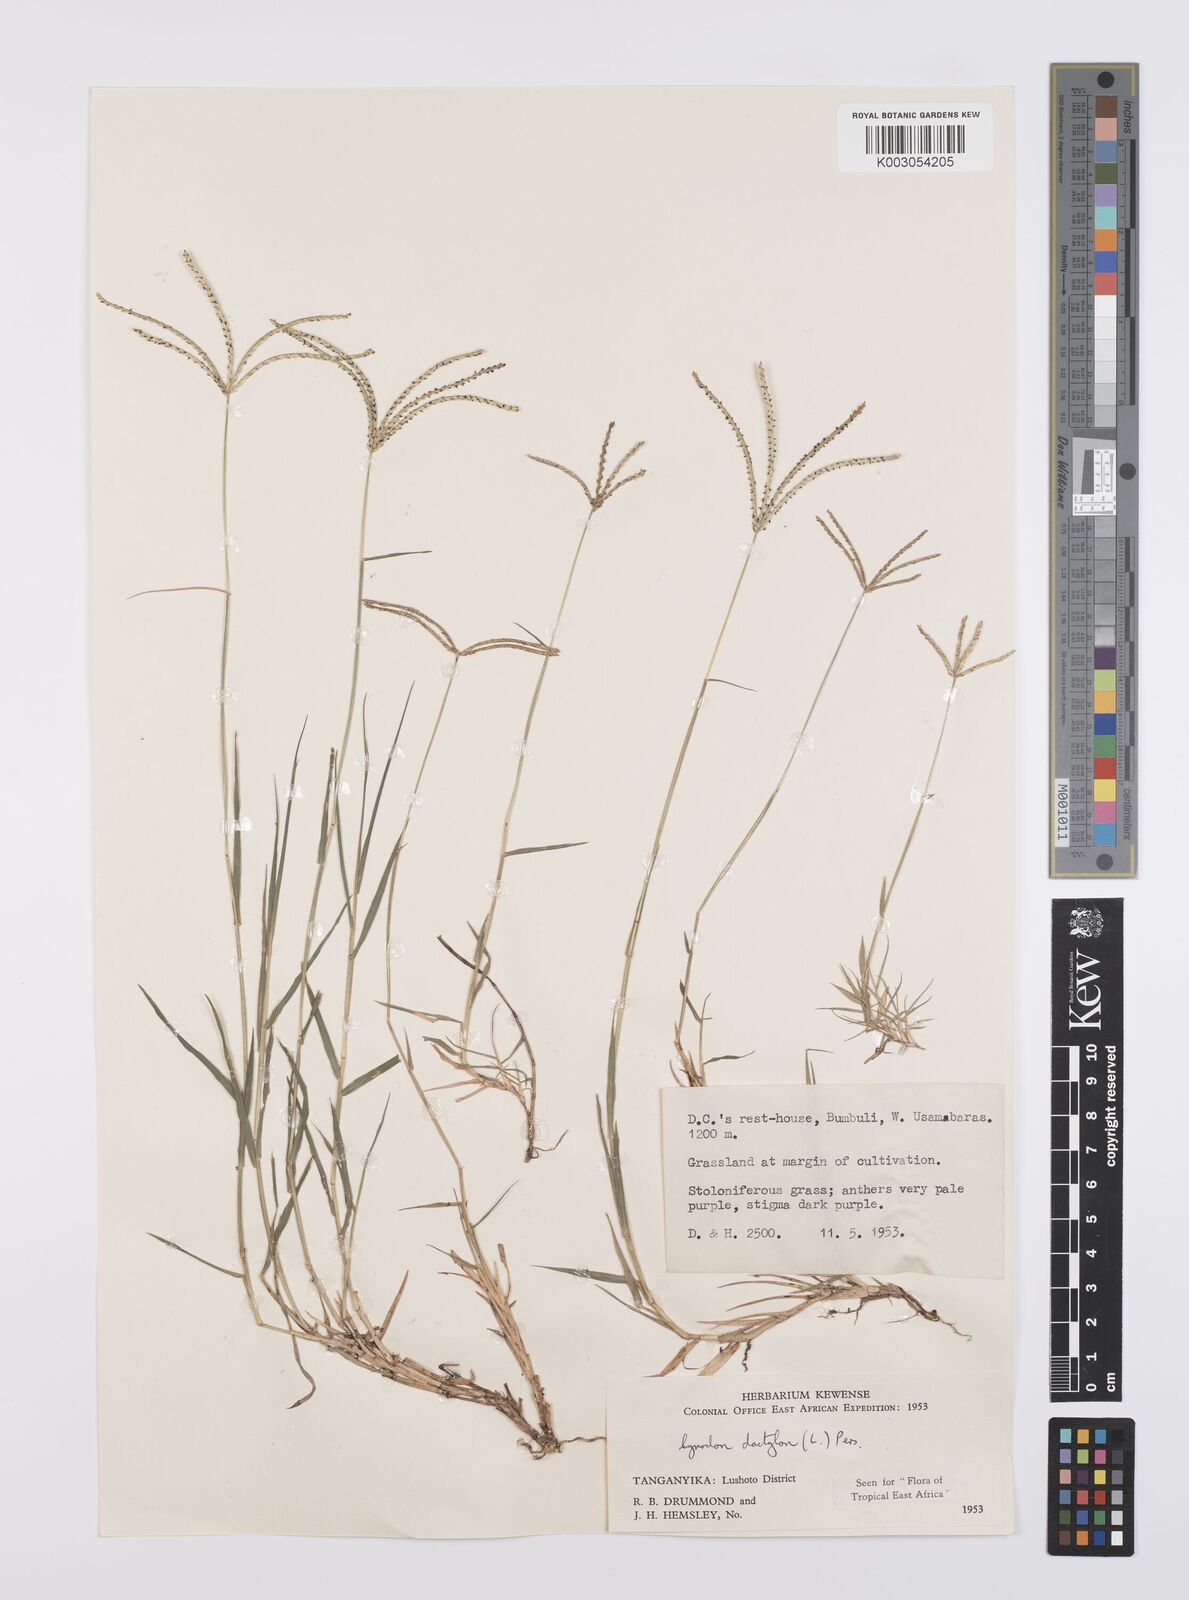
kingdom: Plantae
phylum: Tracheophyta
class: Liliopsida
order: Poales
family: Poaceae
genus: Cynodon
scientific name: Cynodon dactylon
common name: Bermuda grass
